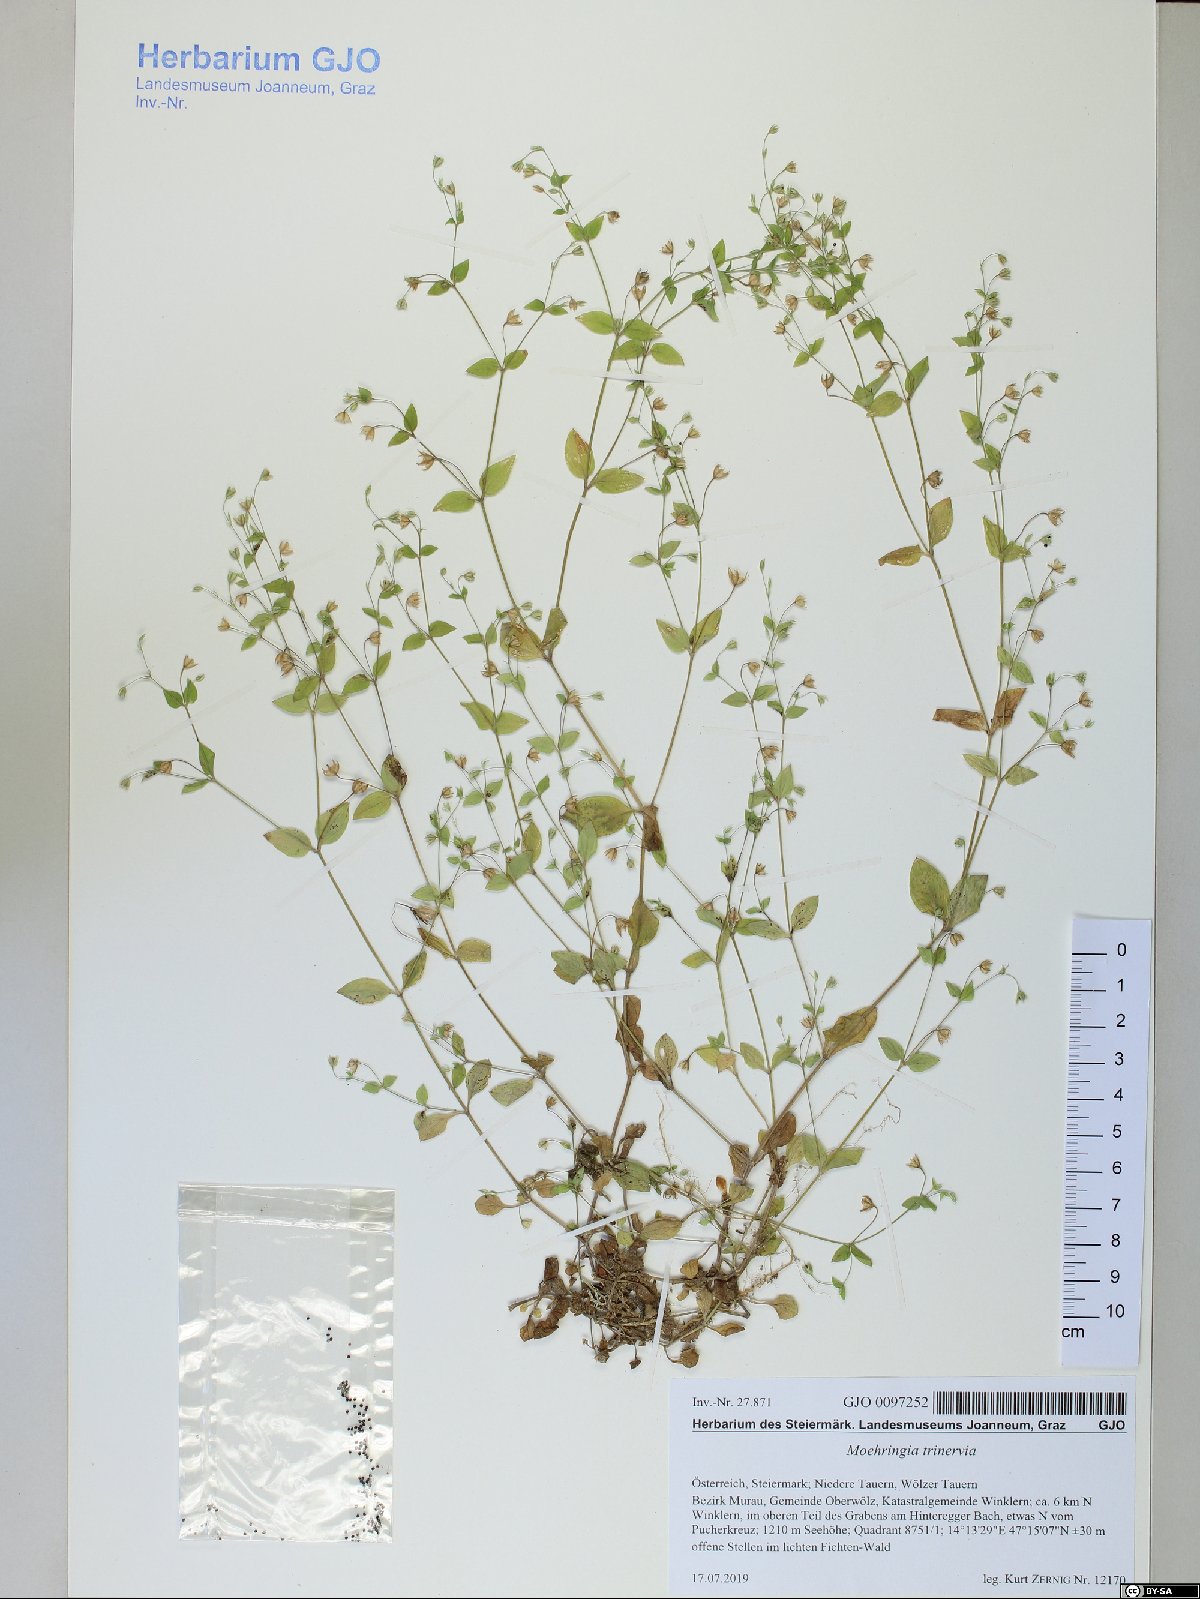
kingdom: Plantae
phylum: Tracheophyta
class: Magnoliopsida
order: Caryophyllales
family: Caryophyllaceae
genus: Moehringia
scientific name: Moehringia trinervia
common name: Three-nerved sandwort
